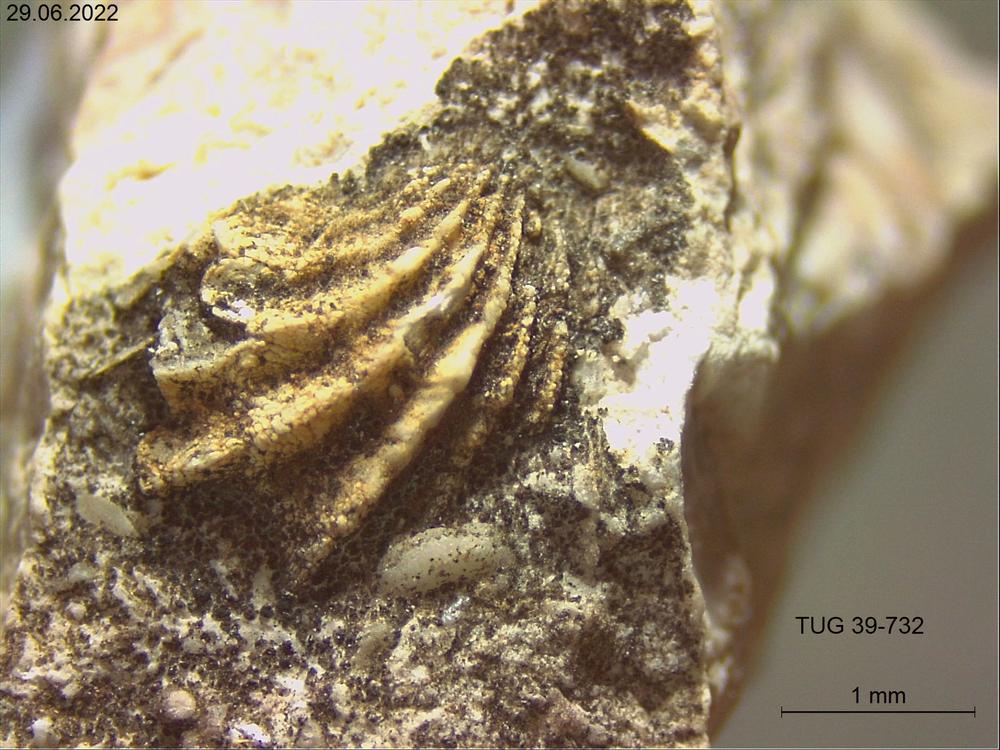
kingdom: Animalia
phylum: Brachiopoda
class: Rhynchonellata
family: Plectorthidae
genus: Platystrophia
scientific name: Platystrophia
